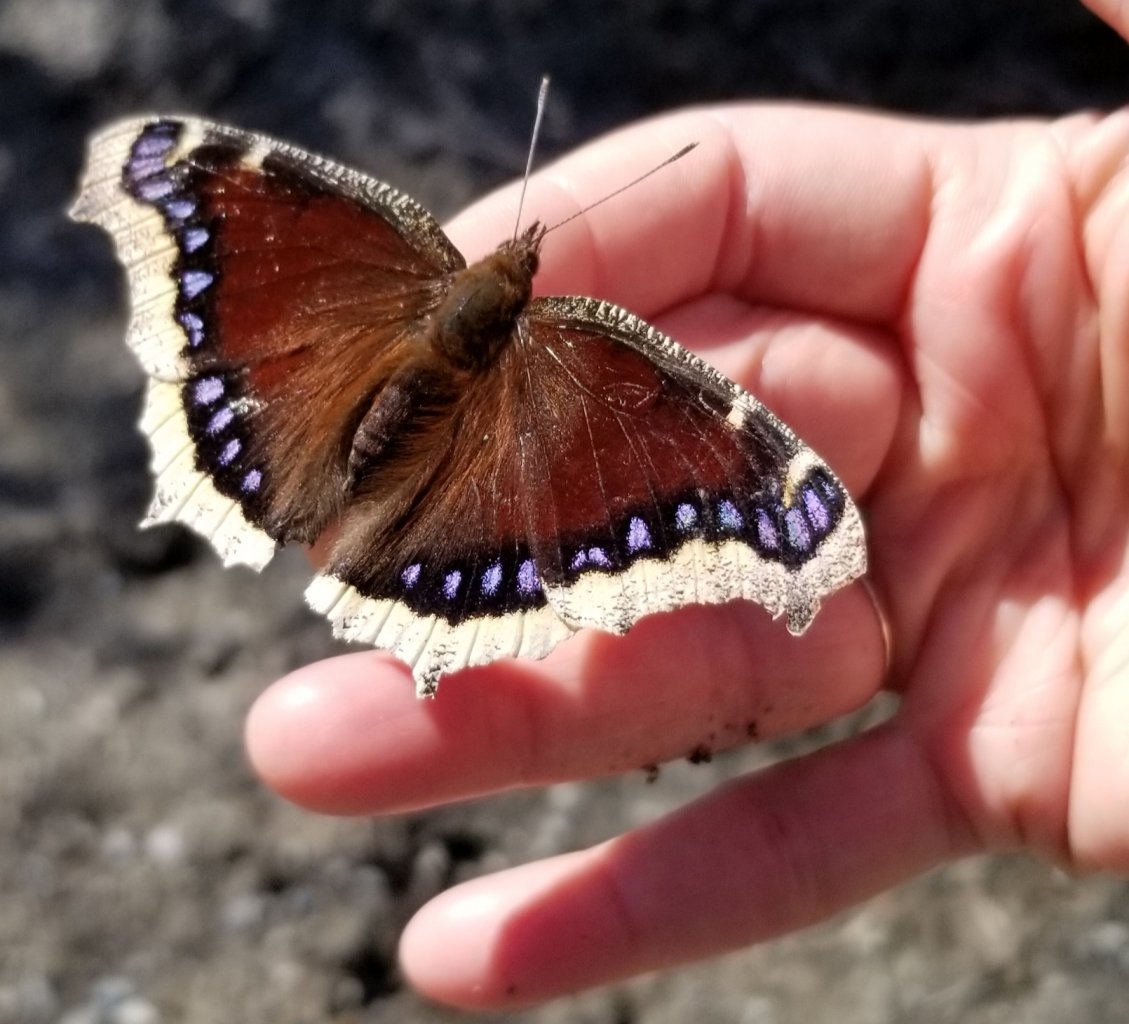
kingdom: Animalia
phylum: Arthropoda
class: Insecta
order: Lepidoptera
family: Nymphalidae
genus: Nymphalis
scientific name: Nymphalis antiopa
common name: Mourning Cloak
